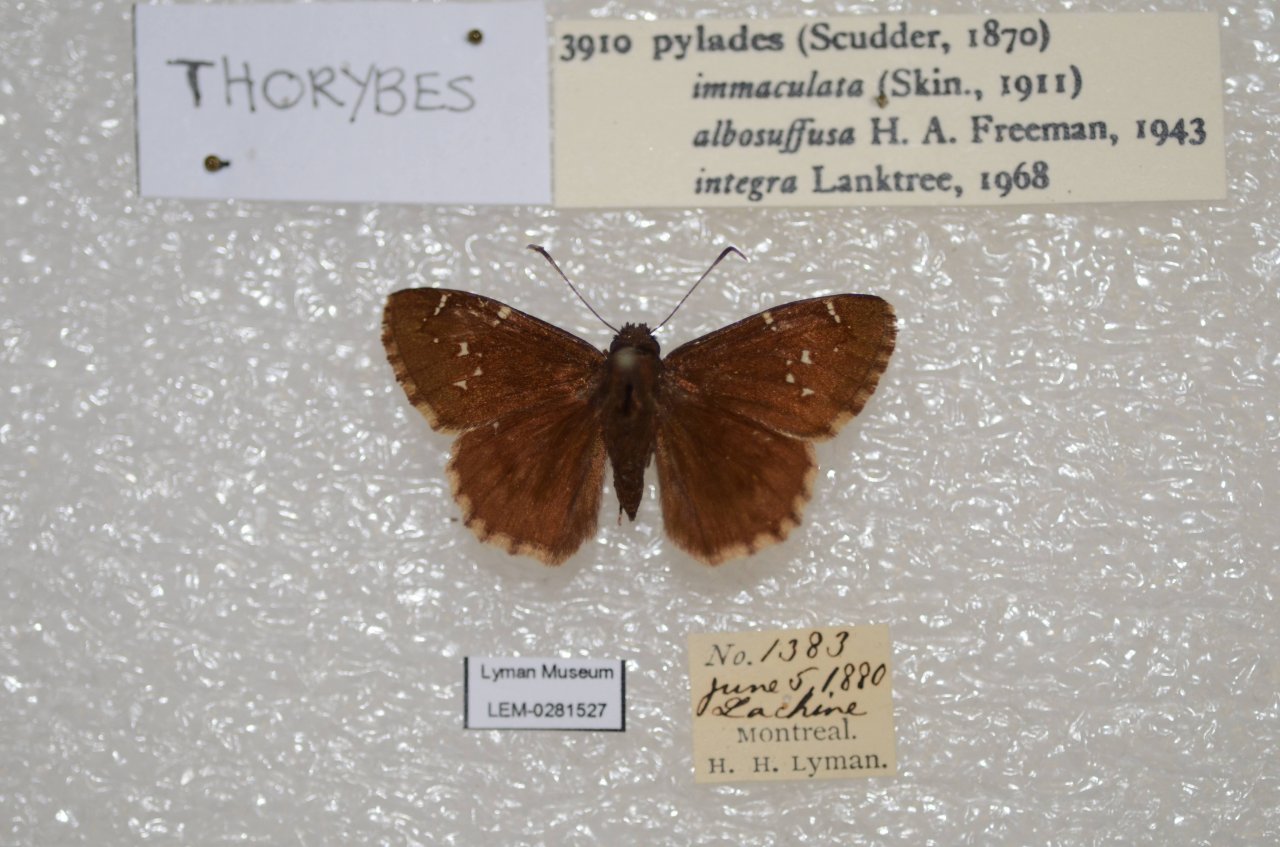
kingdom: Animalia
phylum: Arthropoda
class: Insecta
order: Lepidoptera
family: Hesperiidae
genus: Autochton
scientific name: Autochton
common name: Northern Cloudywing
